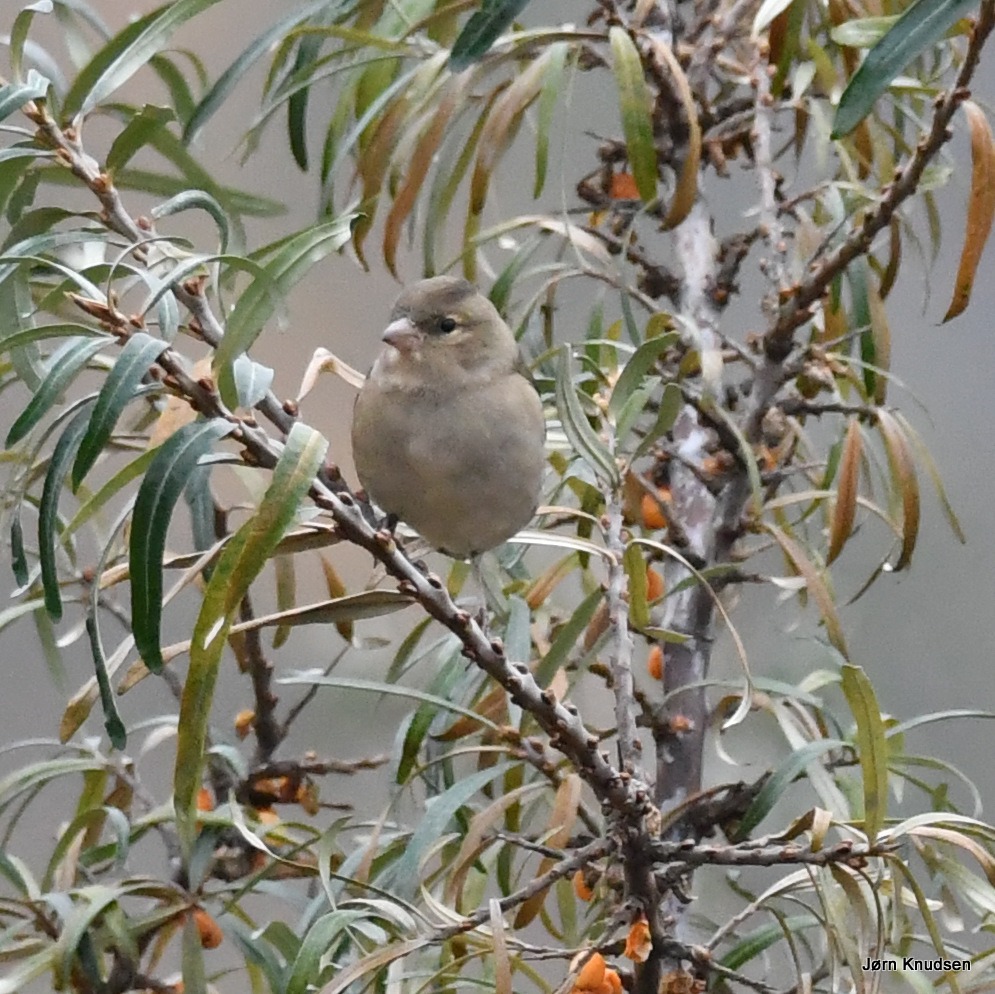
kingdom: Animalia
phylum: Chordata
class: Aves
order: Passeriformes
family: Fringillidae
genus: Fringilla
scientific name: Fringilla coelebs
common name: Bogfinke
